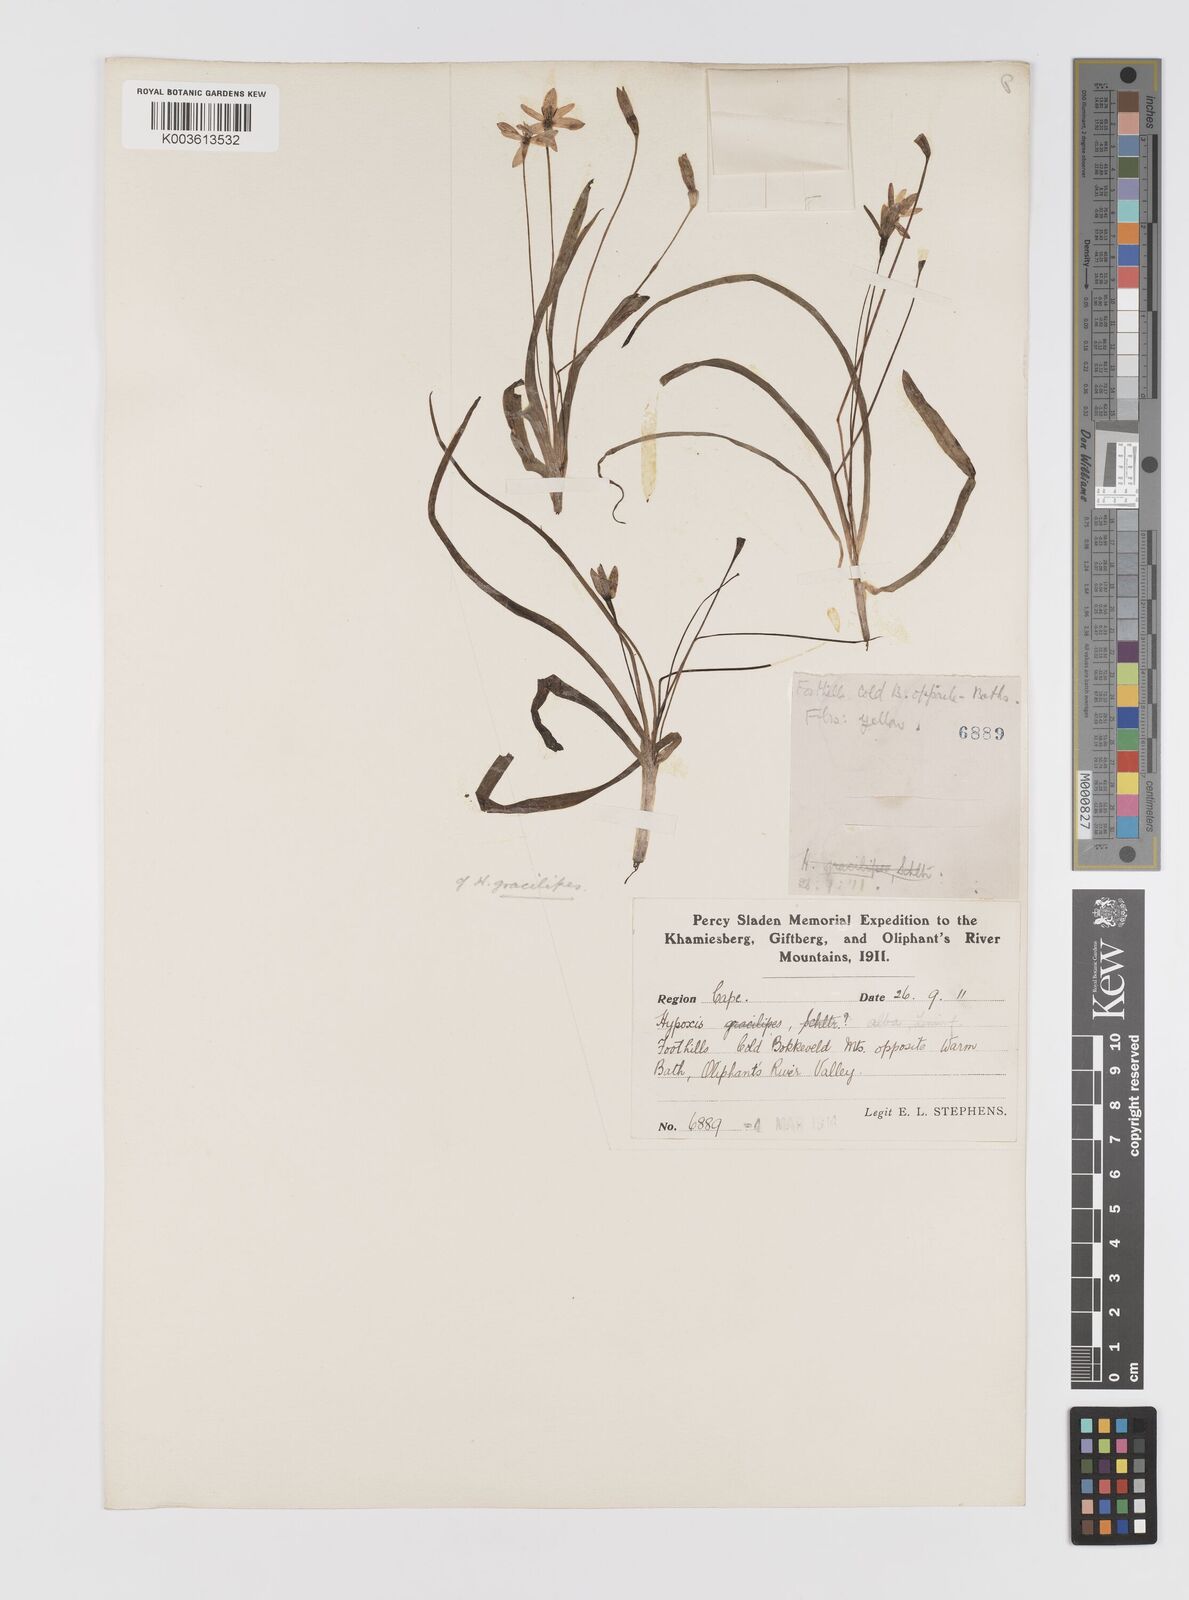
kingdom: Plantae
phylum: Tracheophyta
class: Liliopsida
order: Asparagales
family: Hypoxidaceae
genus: Pauridia
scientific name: Pauridia gracilipes
